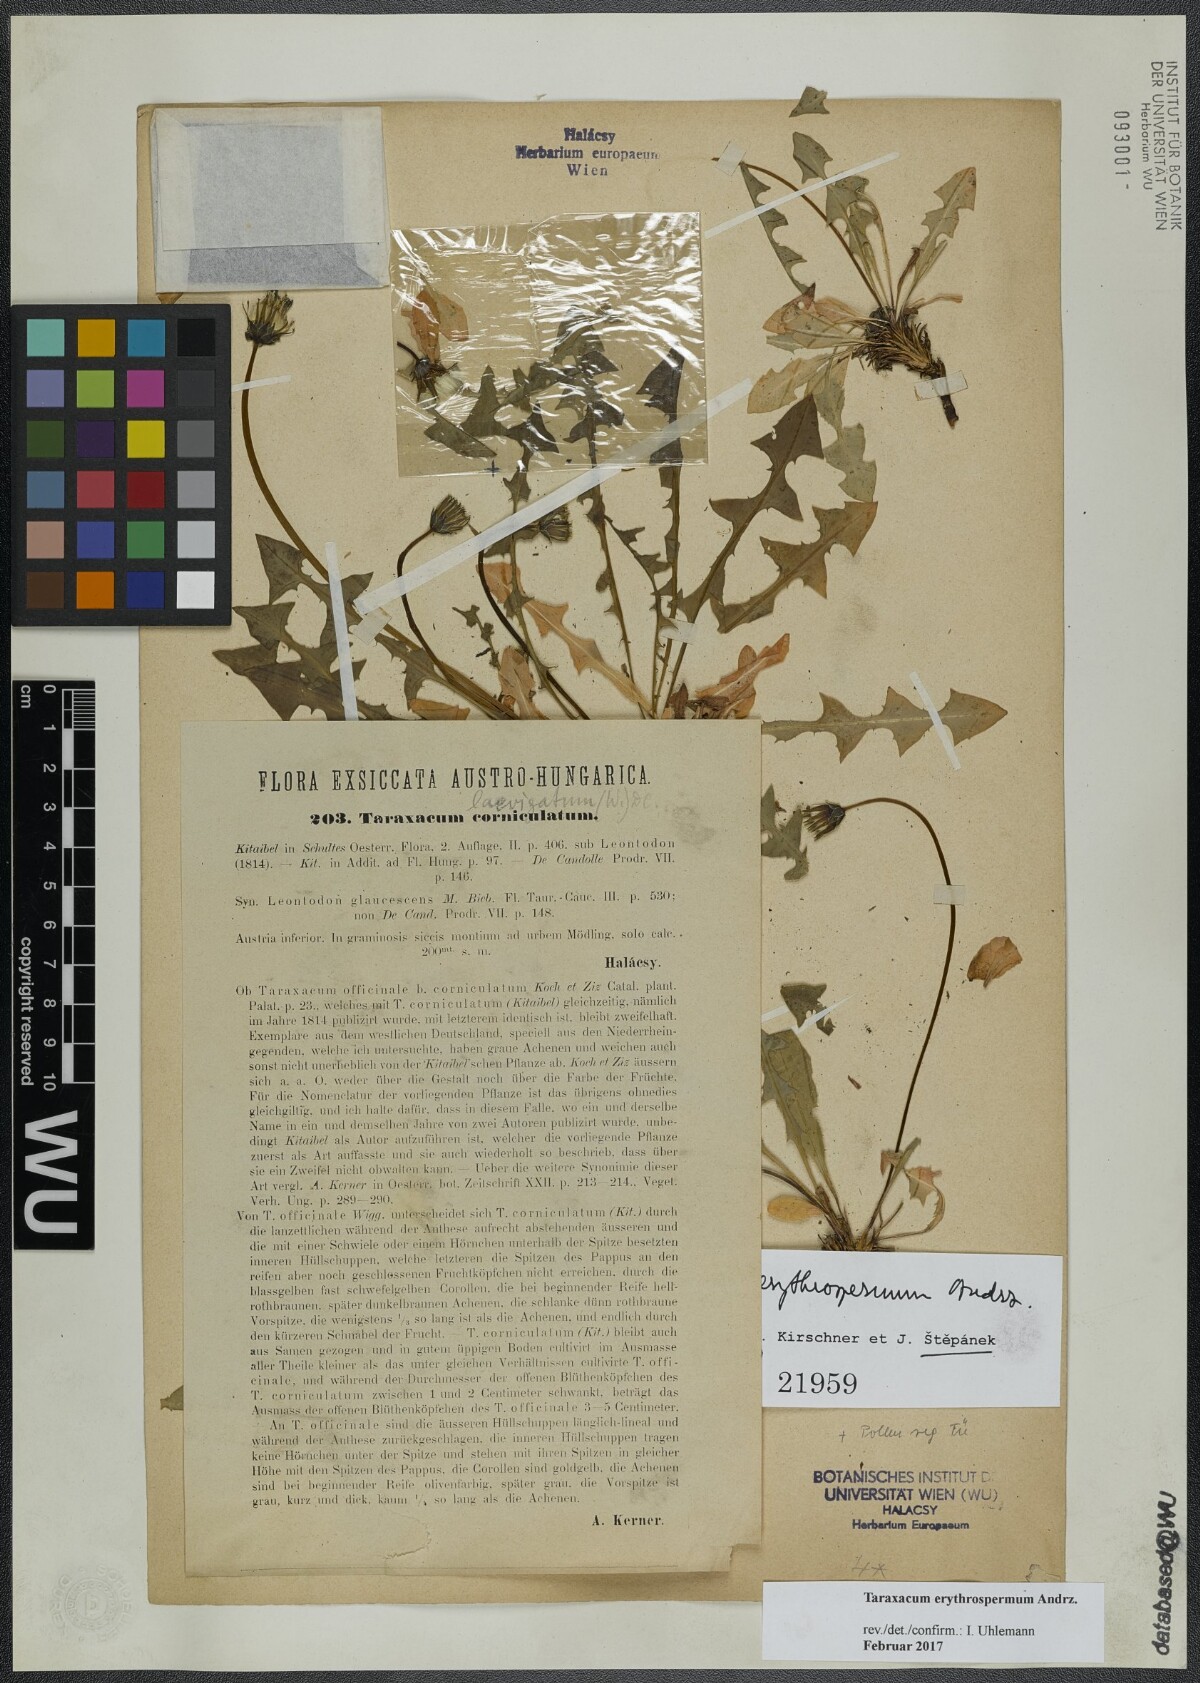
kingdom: Plantae
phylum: Tracheophyta
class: Magnoliopsida
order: Asterales
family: Asteraceae
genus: Taraxacum
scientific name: Taraxacum erythrospermum
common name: Rock dandelion
